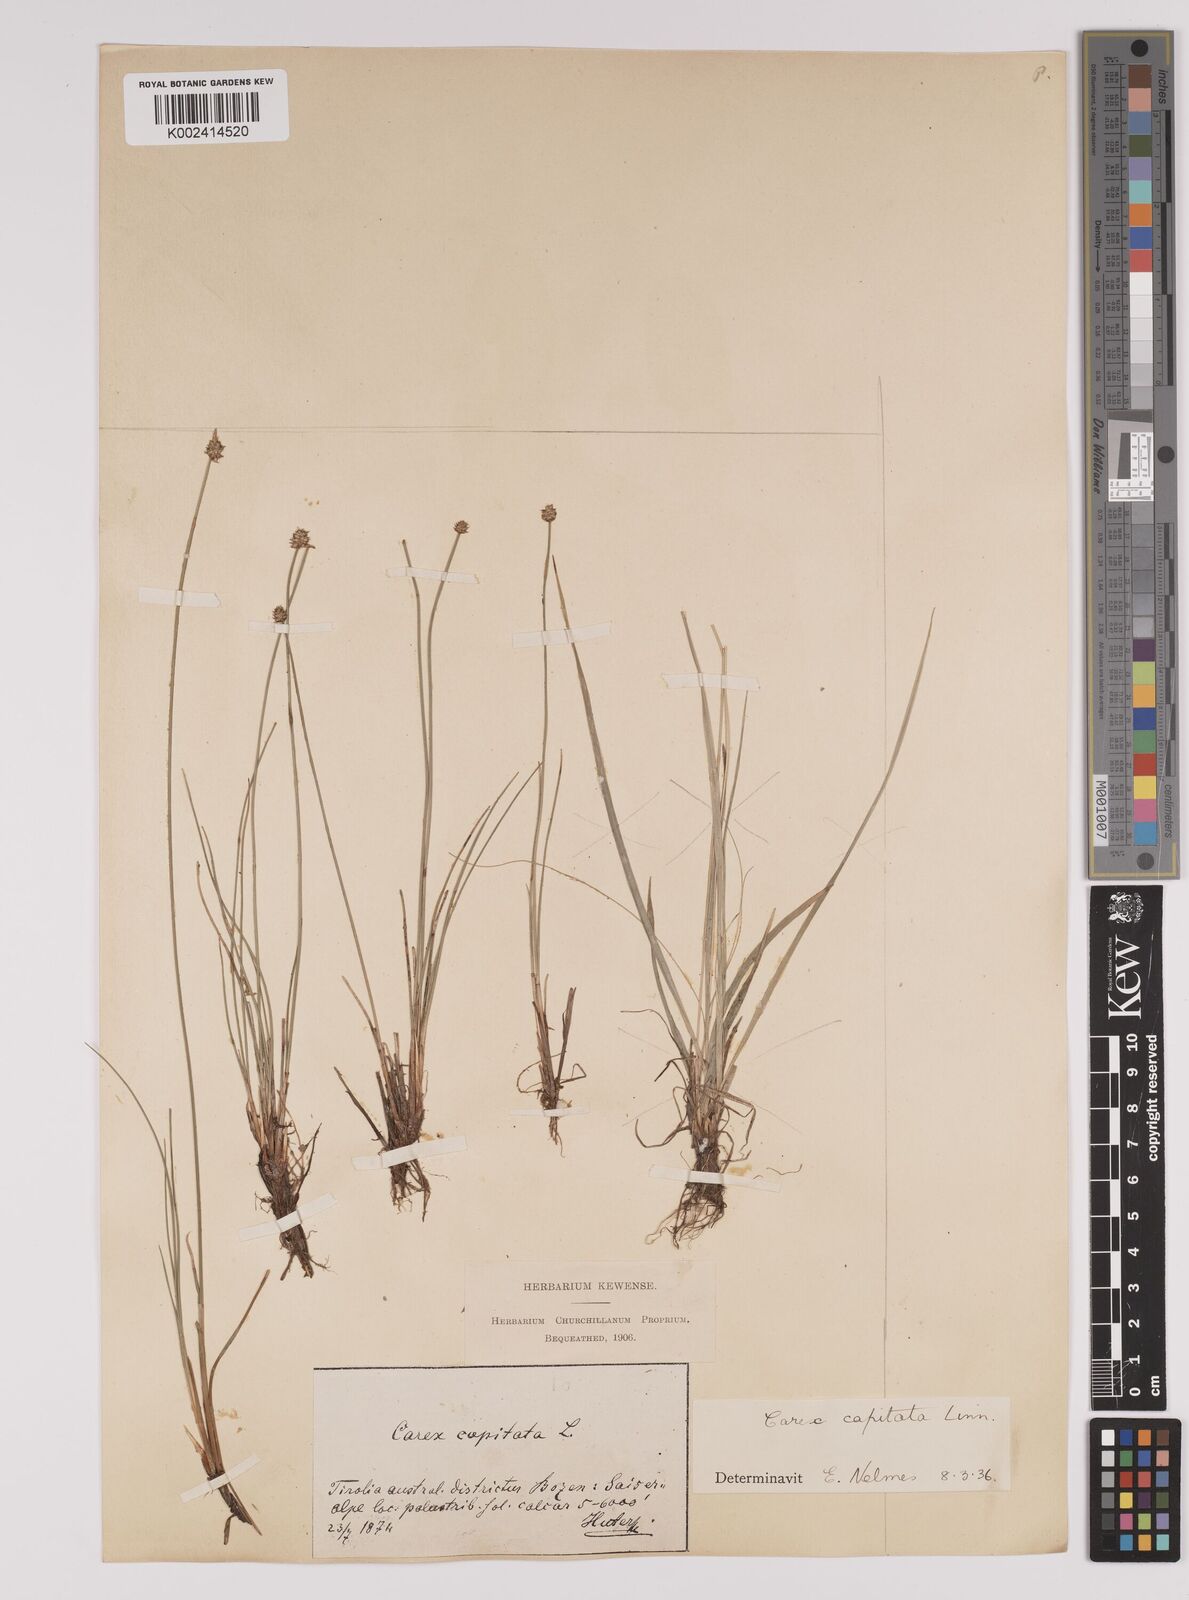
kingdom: Plantae
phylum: Tracheophyta
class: Liliopsida
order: Poales
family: Cyperaceae
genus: Carex
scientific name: Carex capitata
